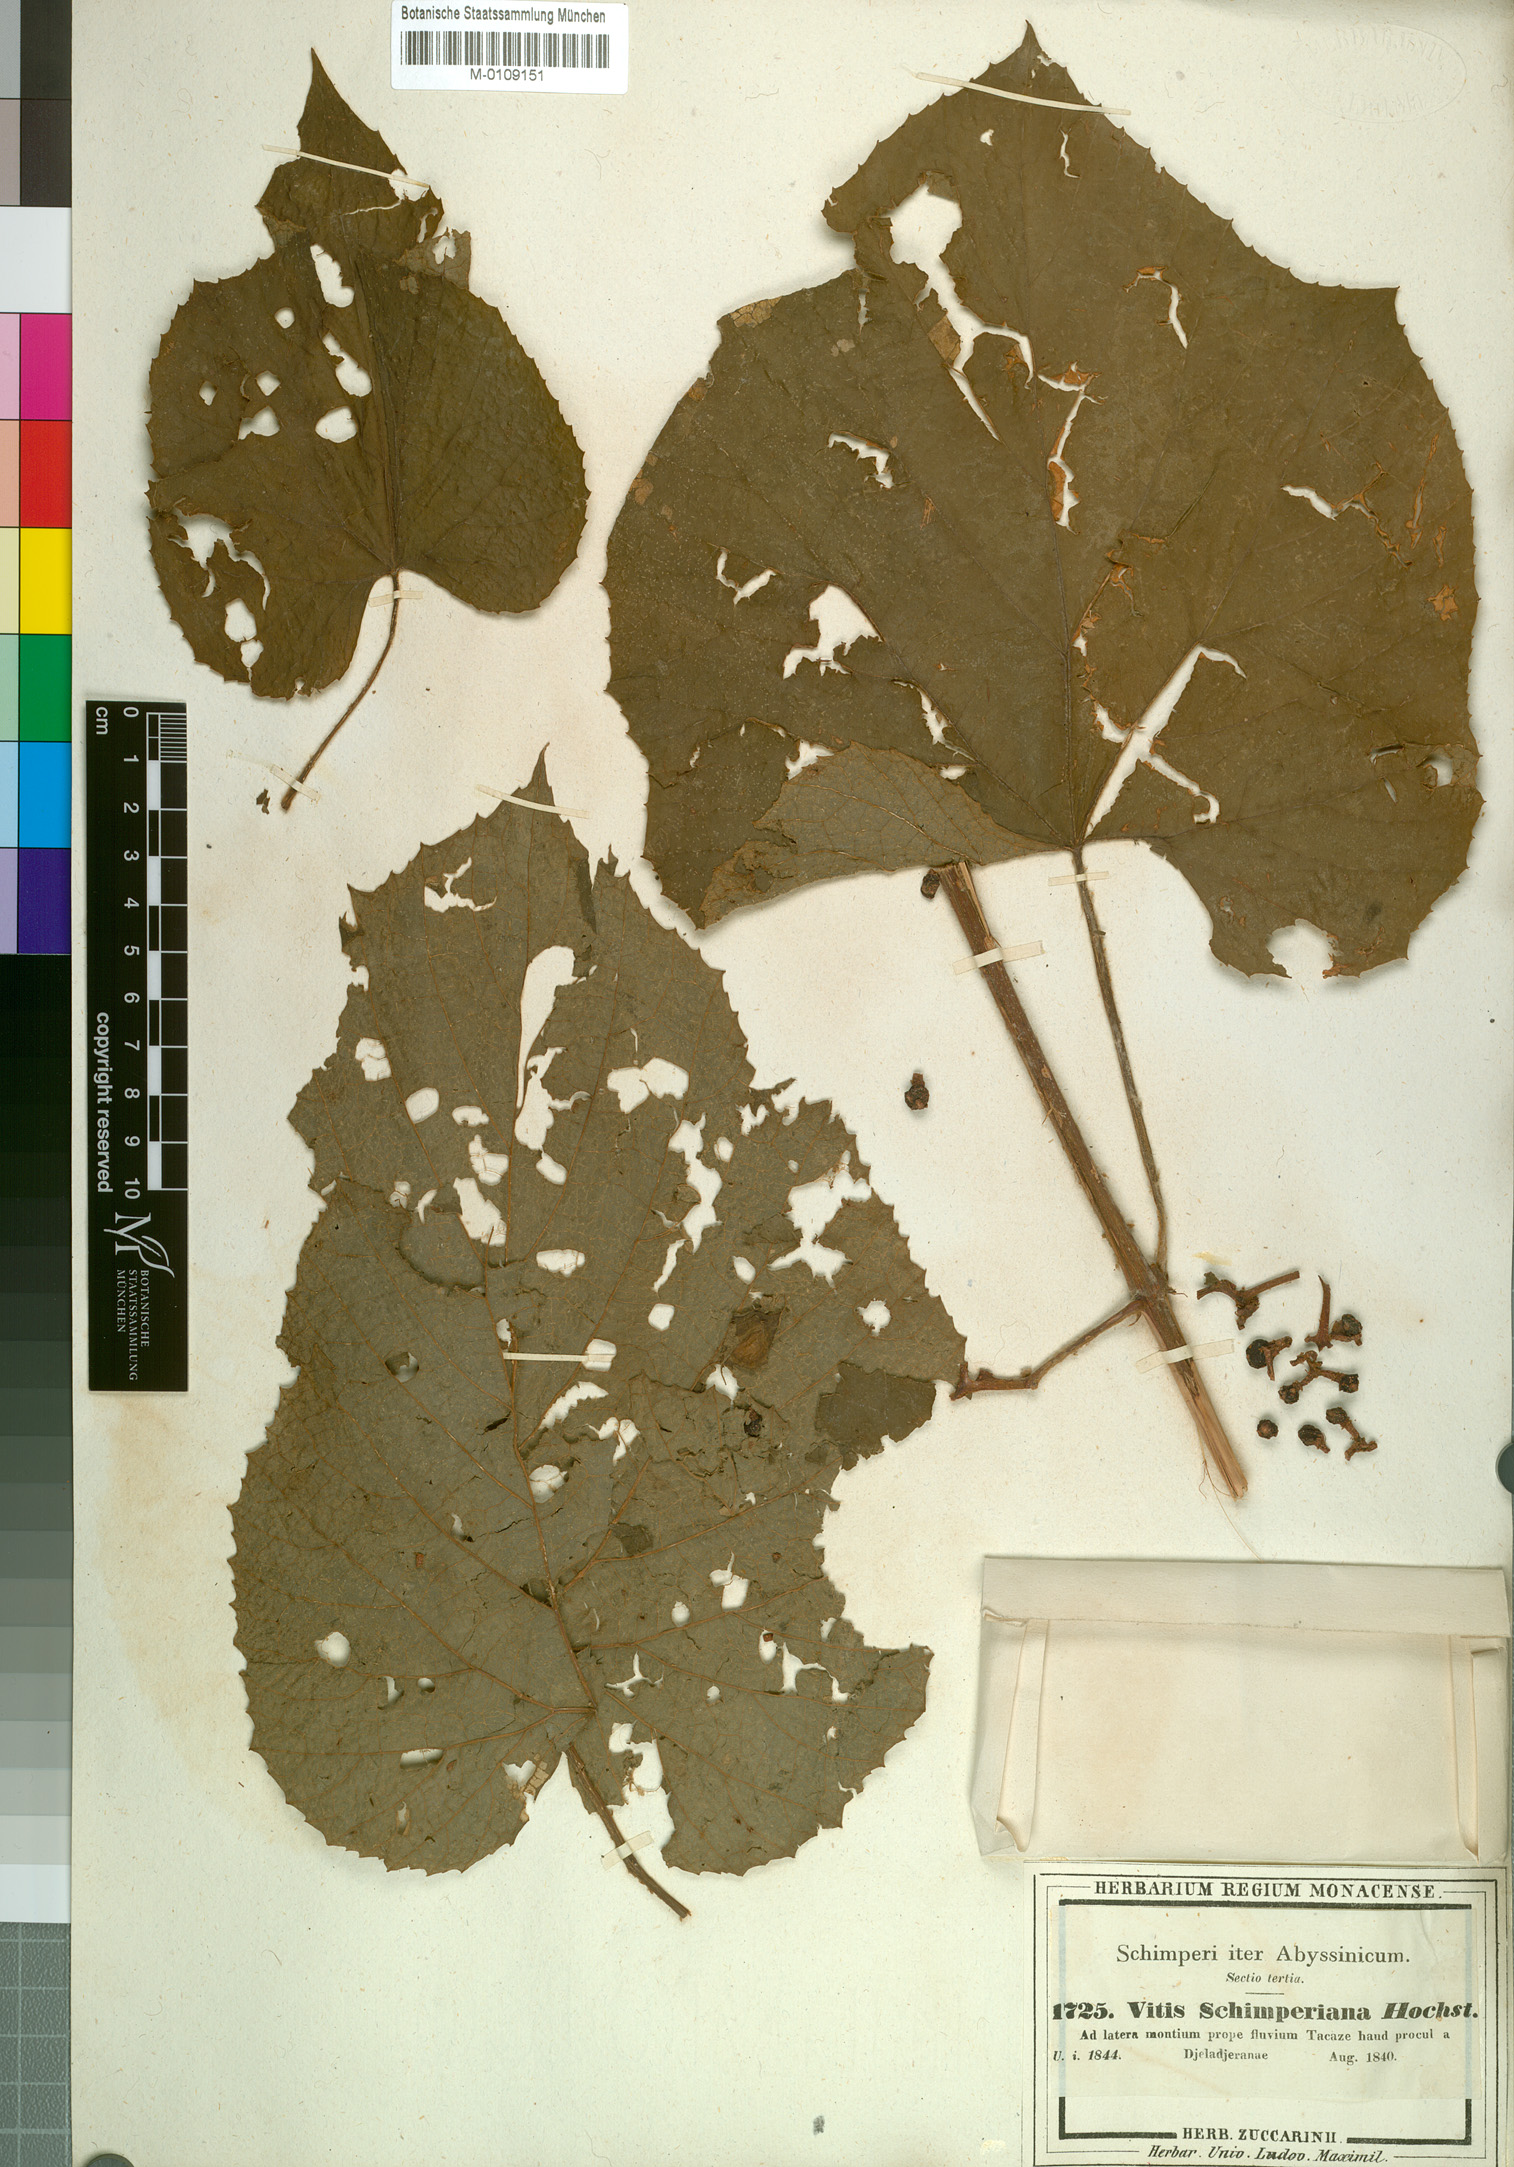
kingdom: Plantae
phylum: Tracheophyta
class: Magnoliopsida
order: Vitales
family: Vitaceae
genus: Ampelocissus
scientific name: Ampelocissus schimperiana
